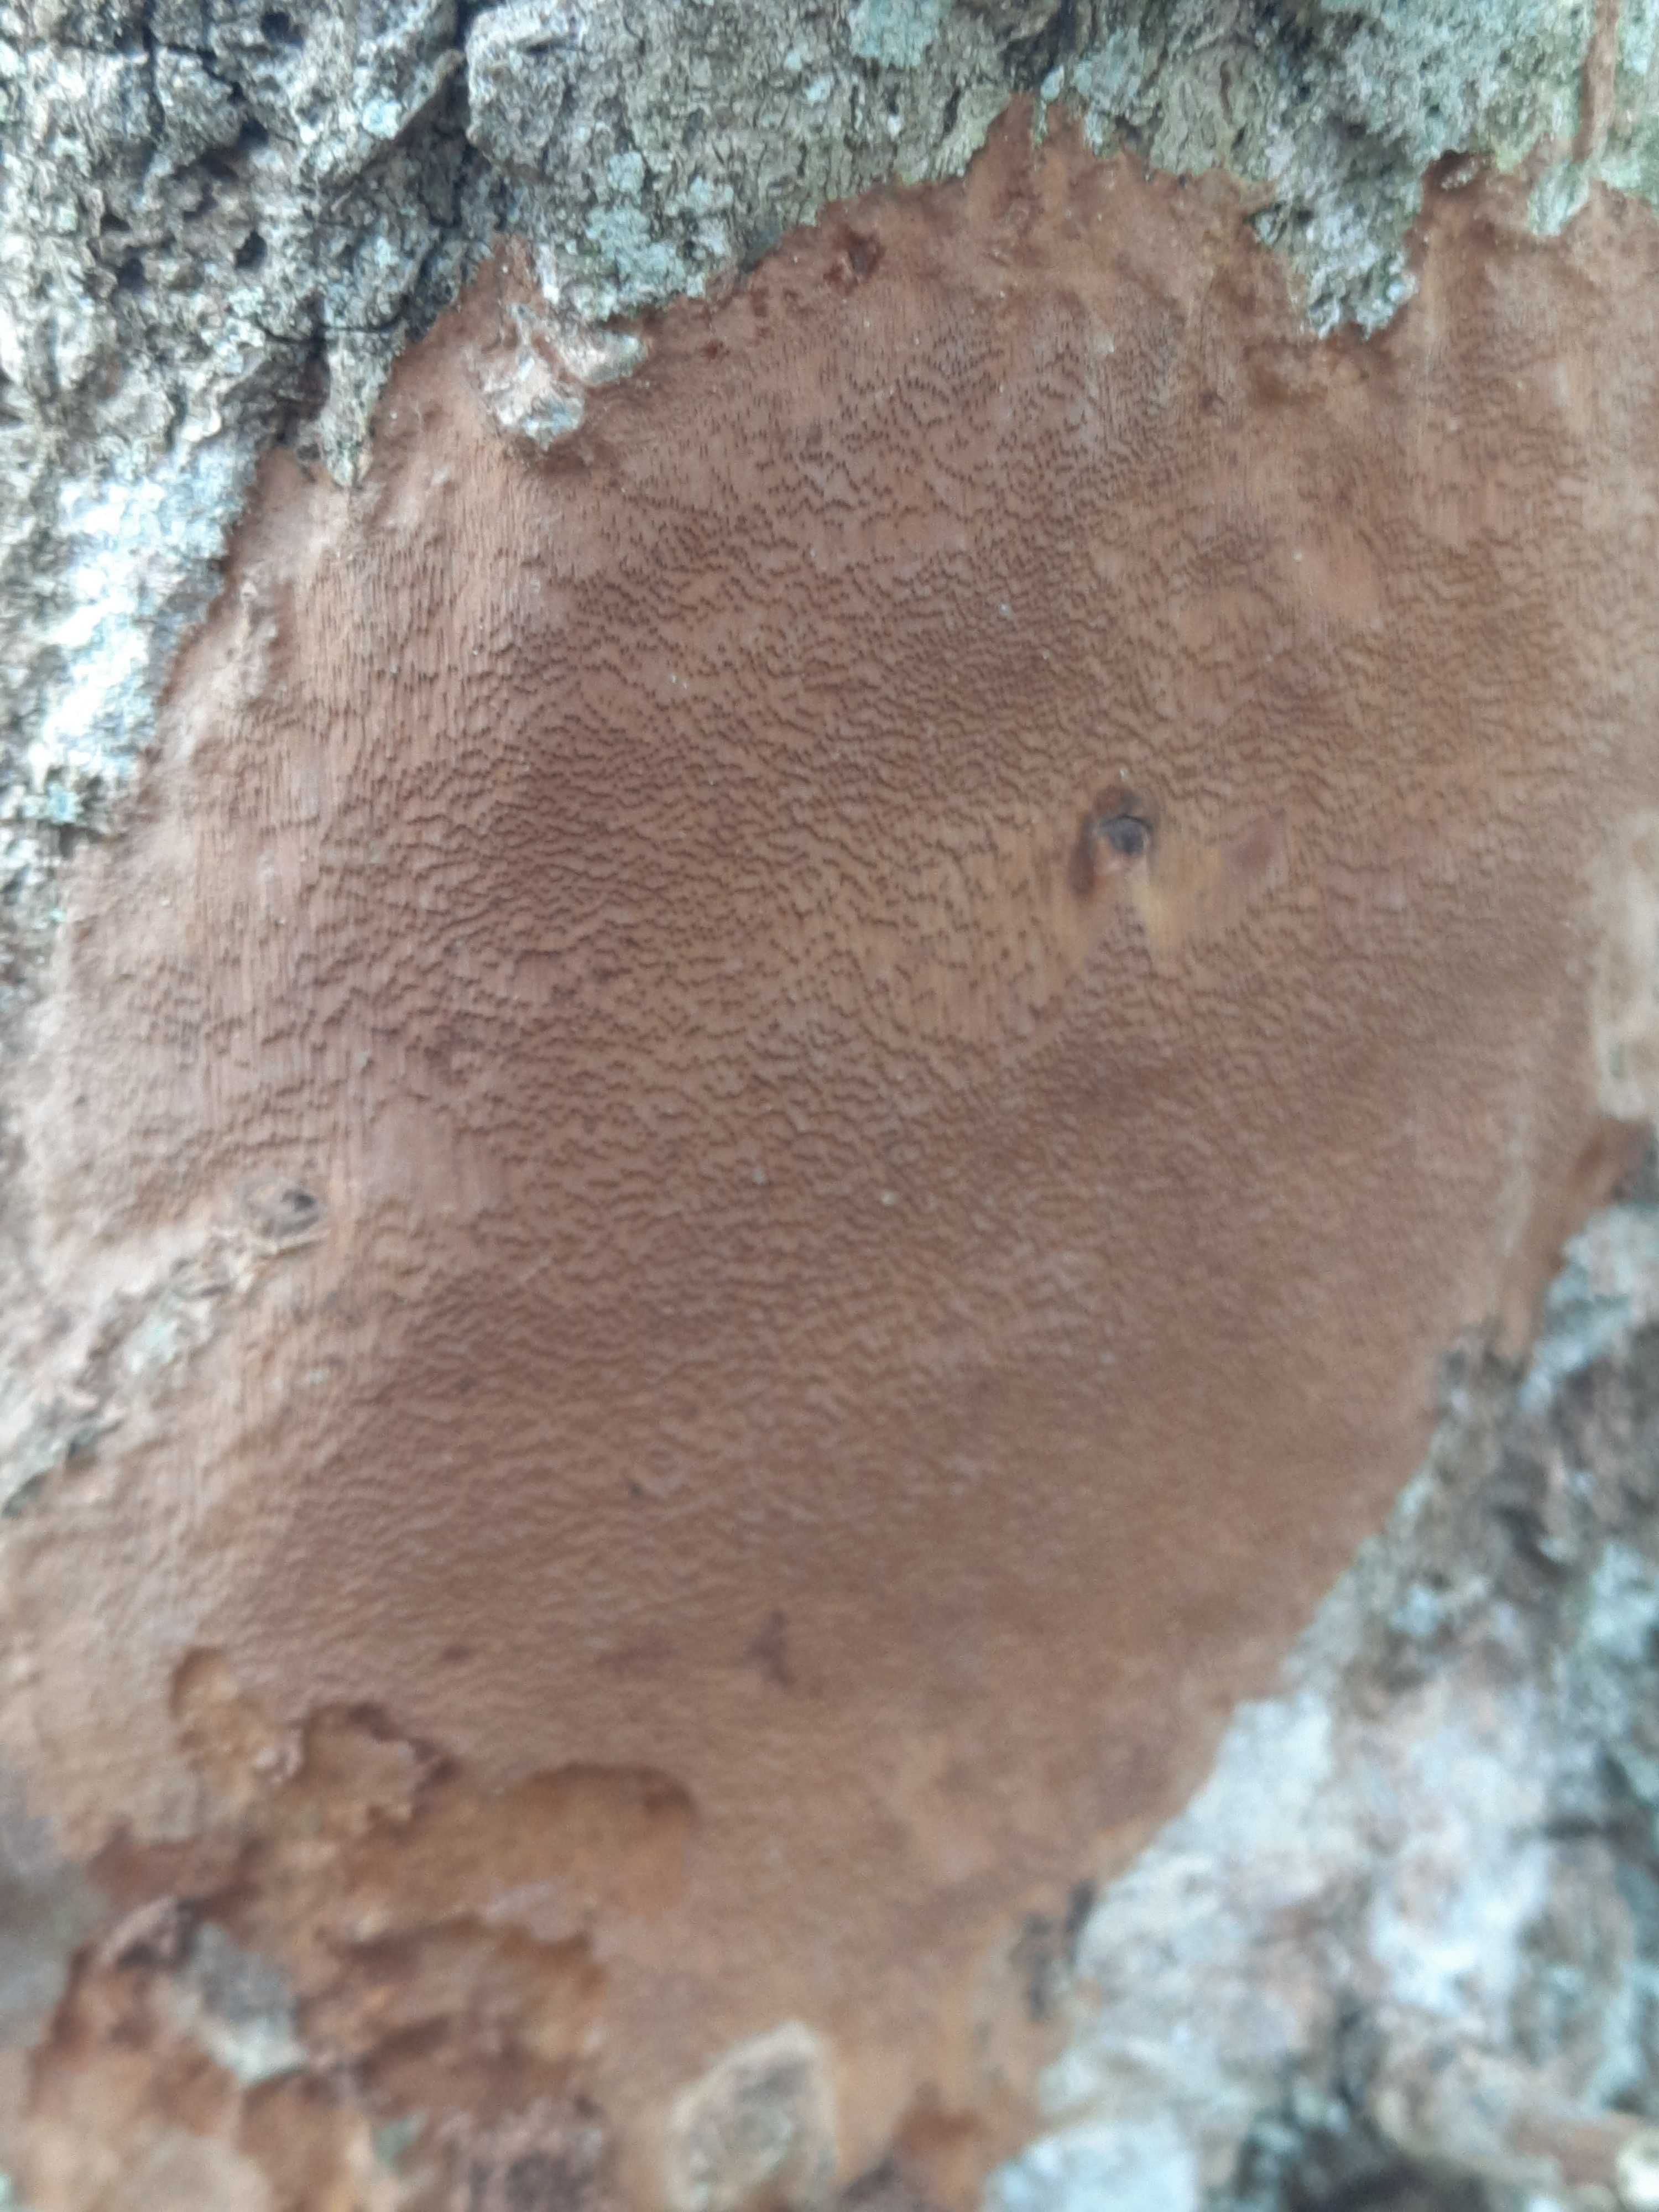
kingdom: Fungi
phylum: Basidiomycota
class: Agaricomycetes
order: Hymenochaetales
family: Hymenochaetaceae
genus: Fomitiporia
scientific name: Fomitiporia punctata
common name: pude-ildporesvamp
